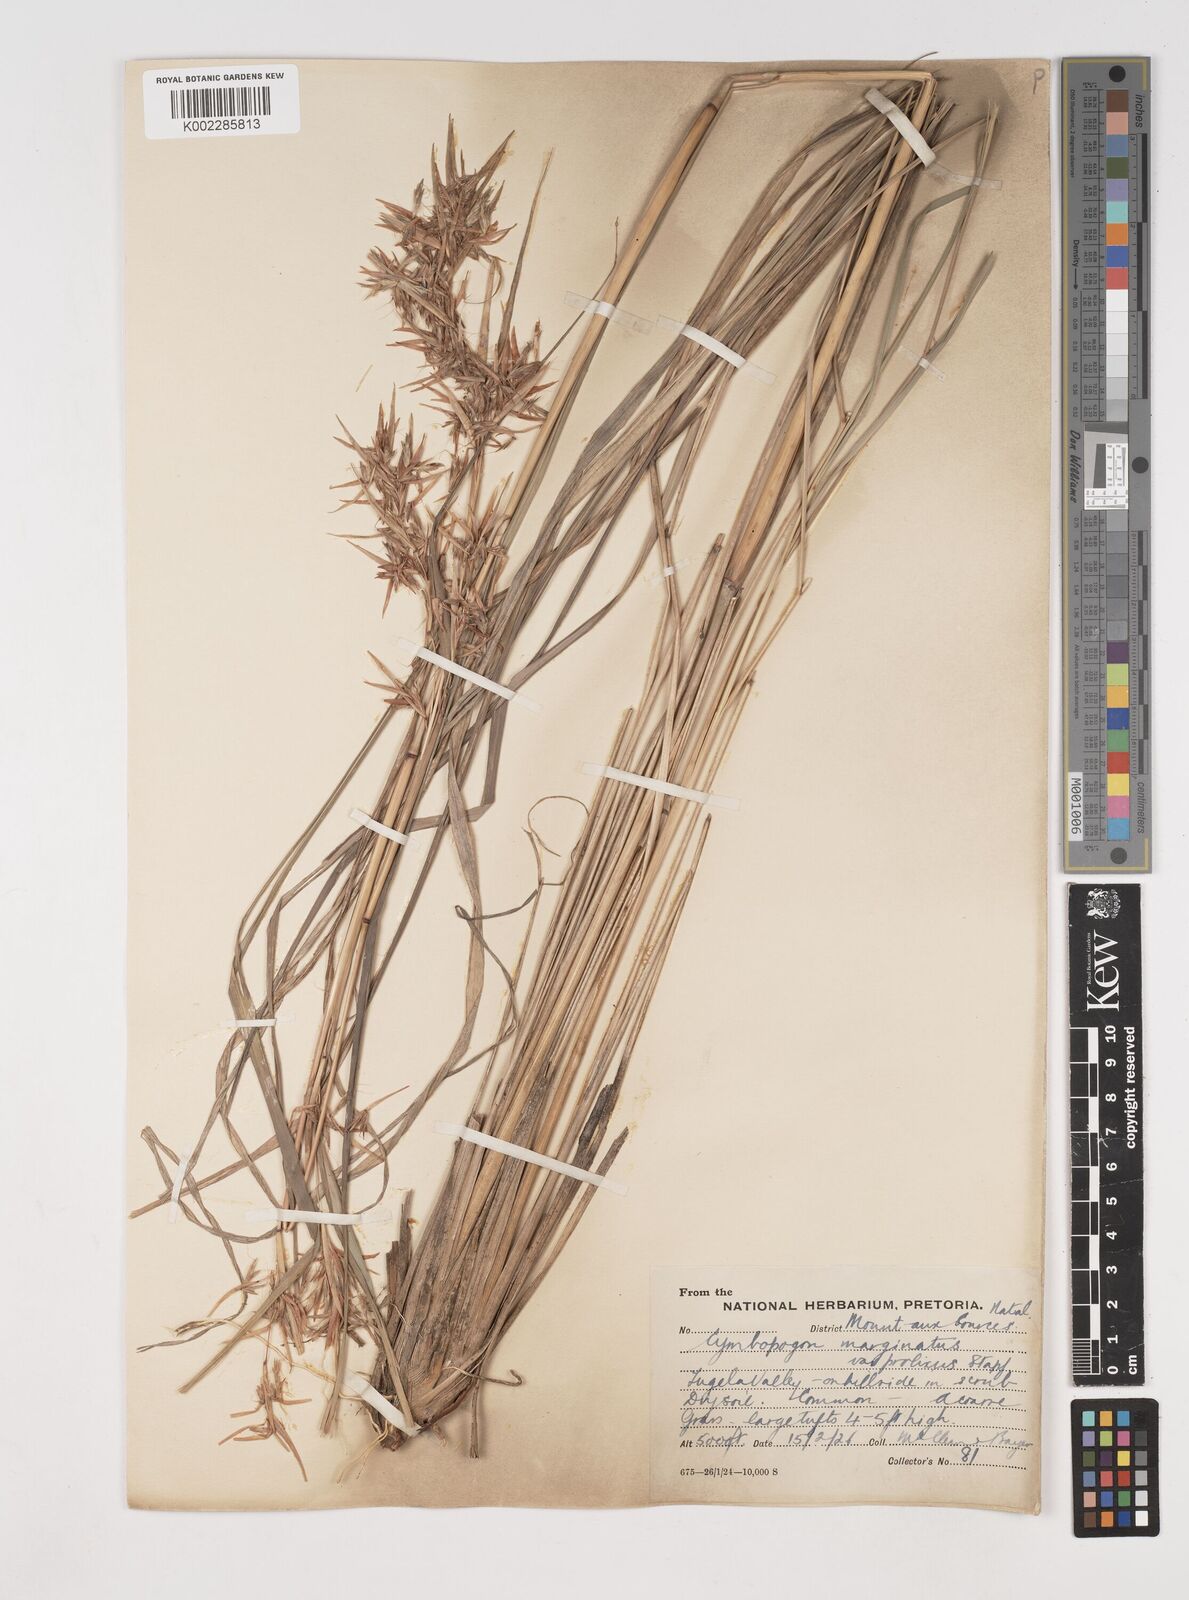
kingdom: Plantae
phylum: Tracheophyta
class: Liliopsida
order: Poales
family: Poaceae
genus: Cymbopogon
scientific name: Cymbopogon nardus
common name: Giant turpentine grass
